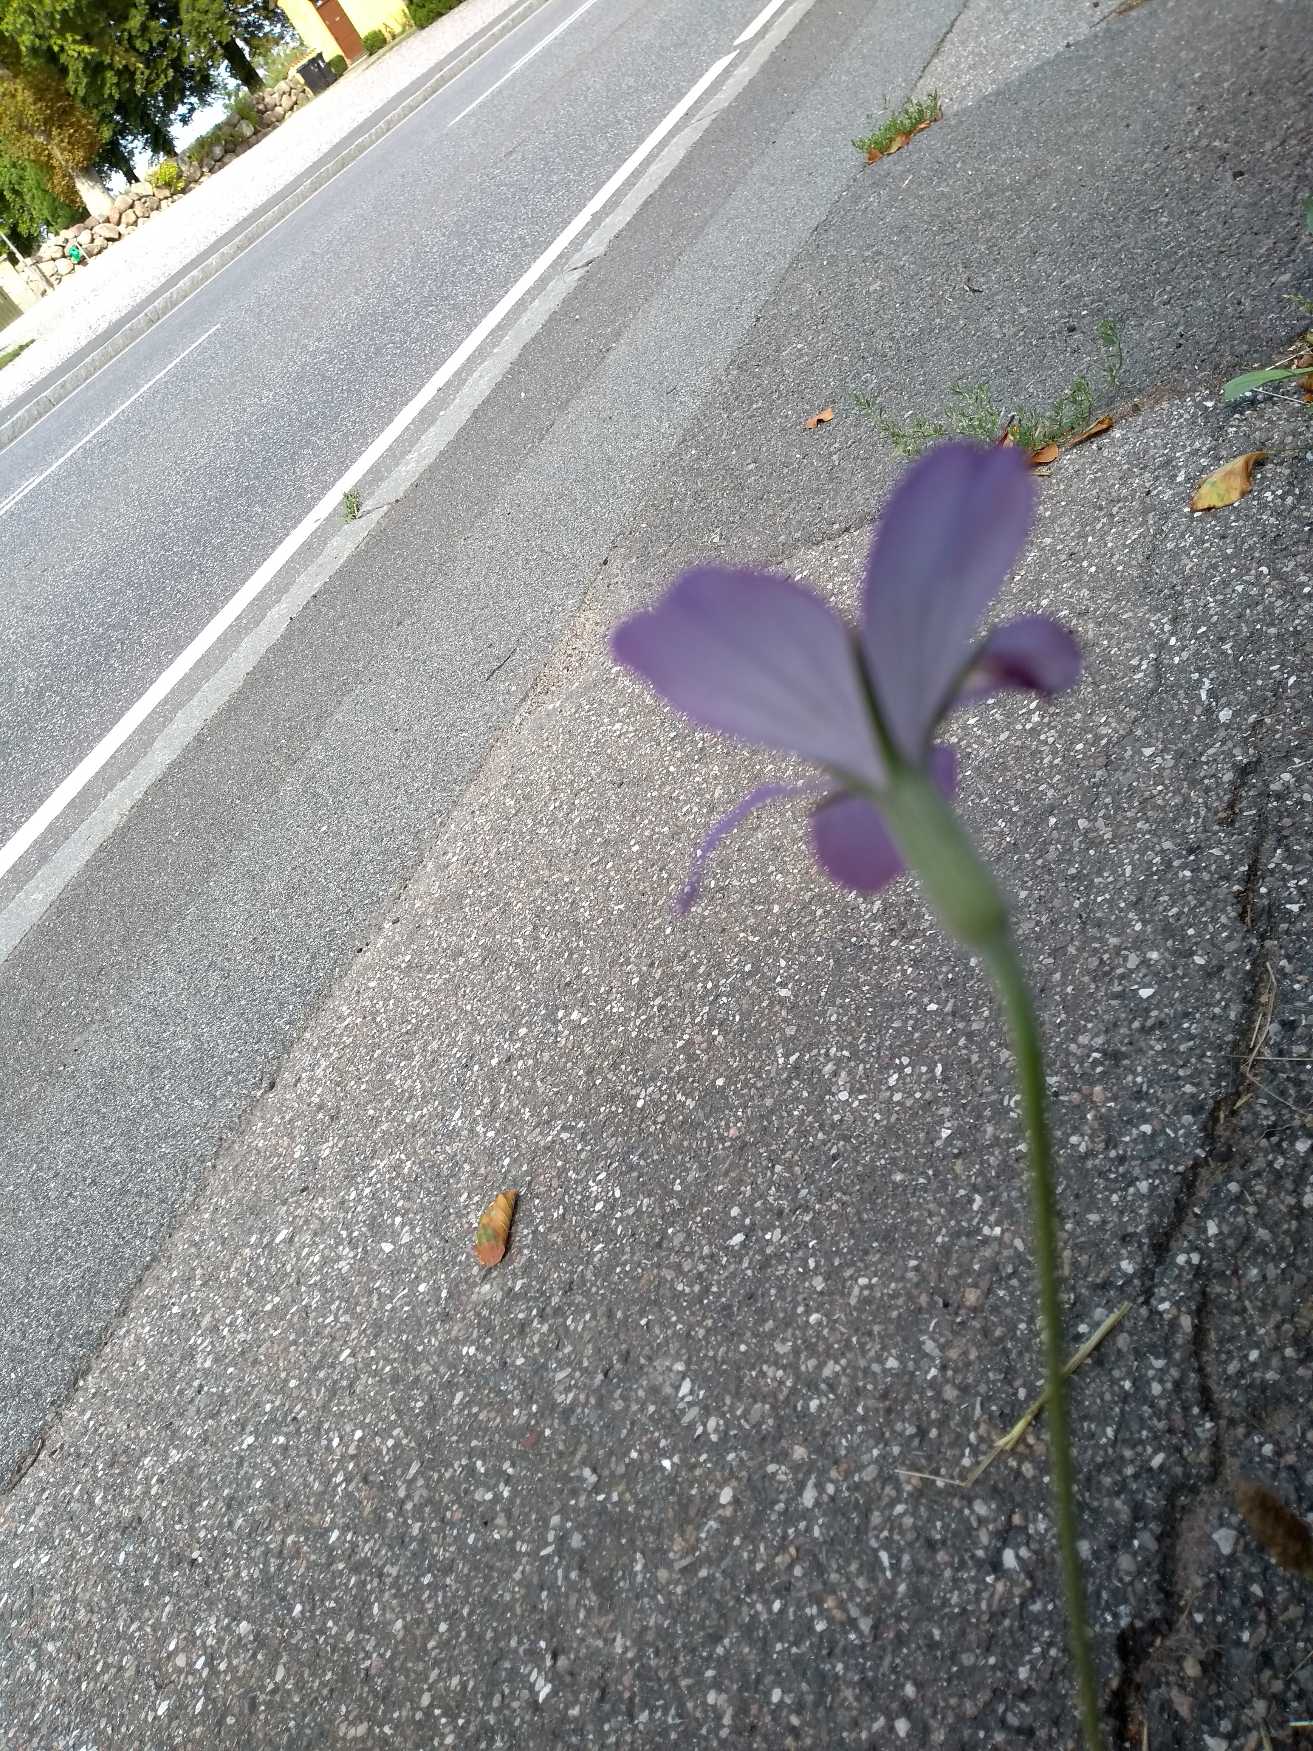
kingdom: Plantae
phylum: Tracheophyta
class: Magnoliopsida
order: Caryophyllales
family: Caryophyllaceae
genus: Agrostemma
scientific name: Agrostemma githago
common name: Klinte
